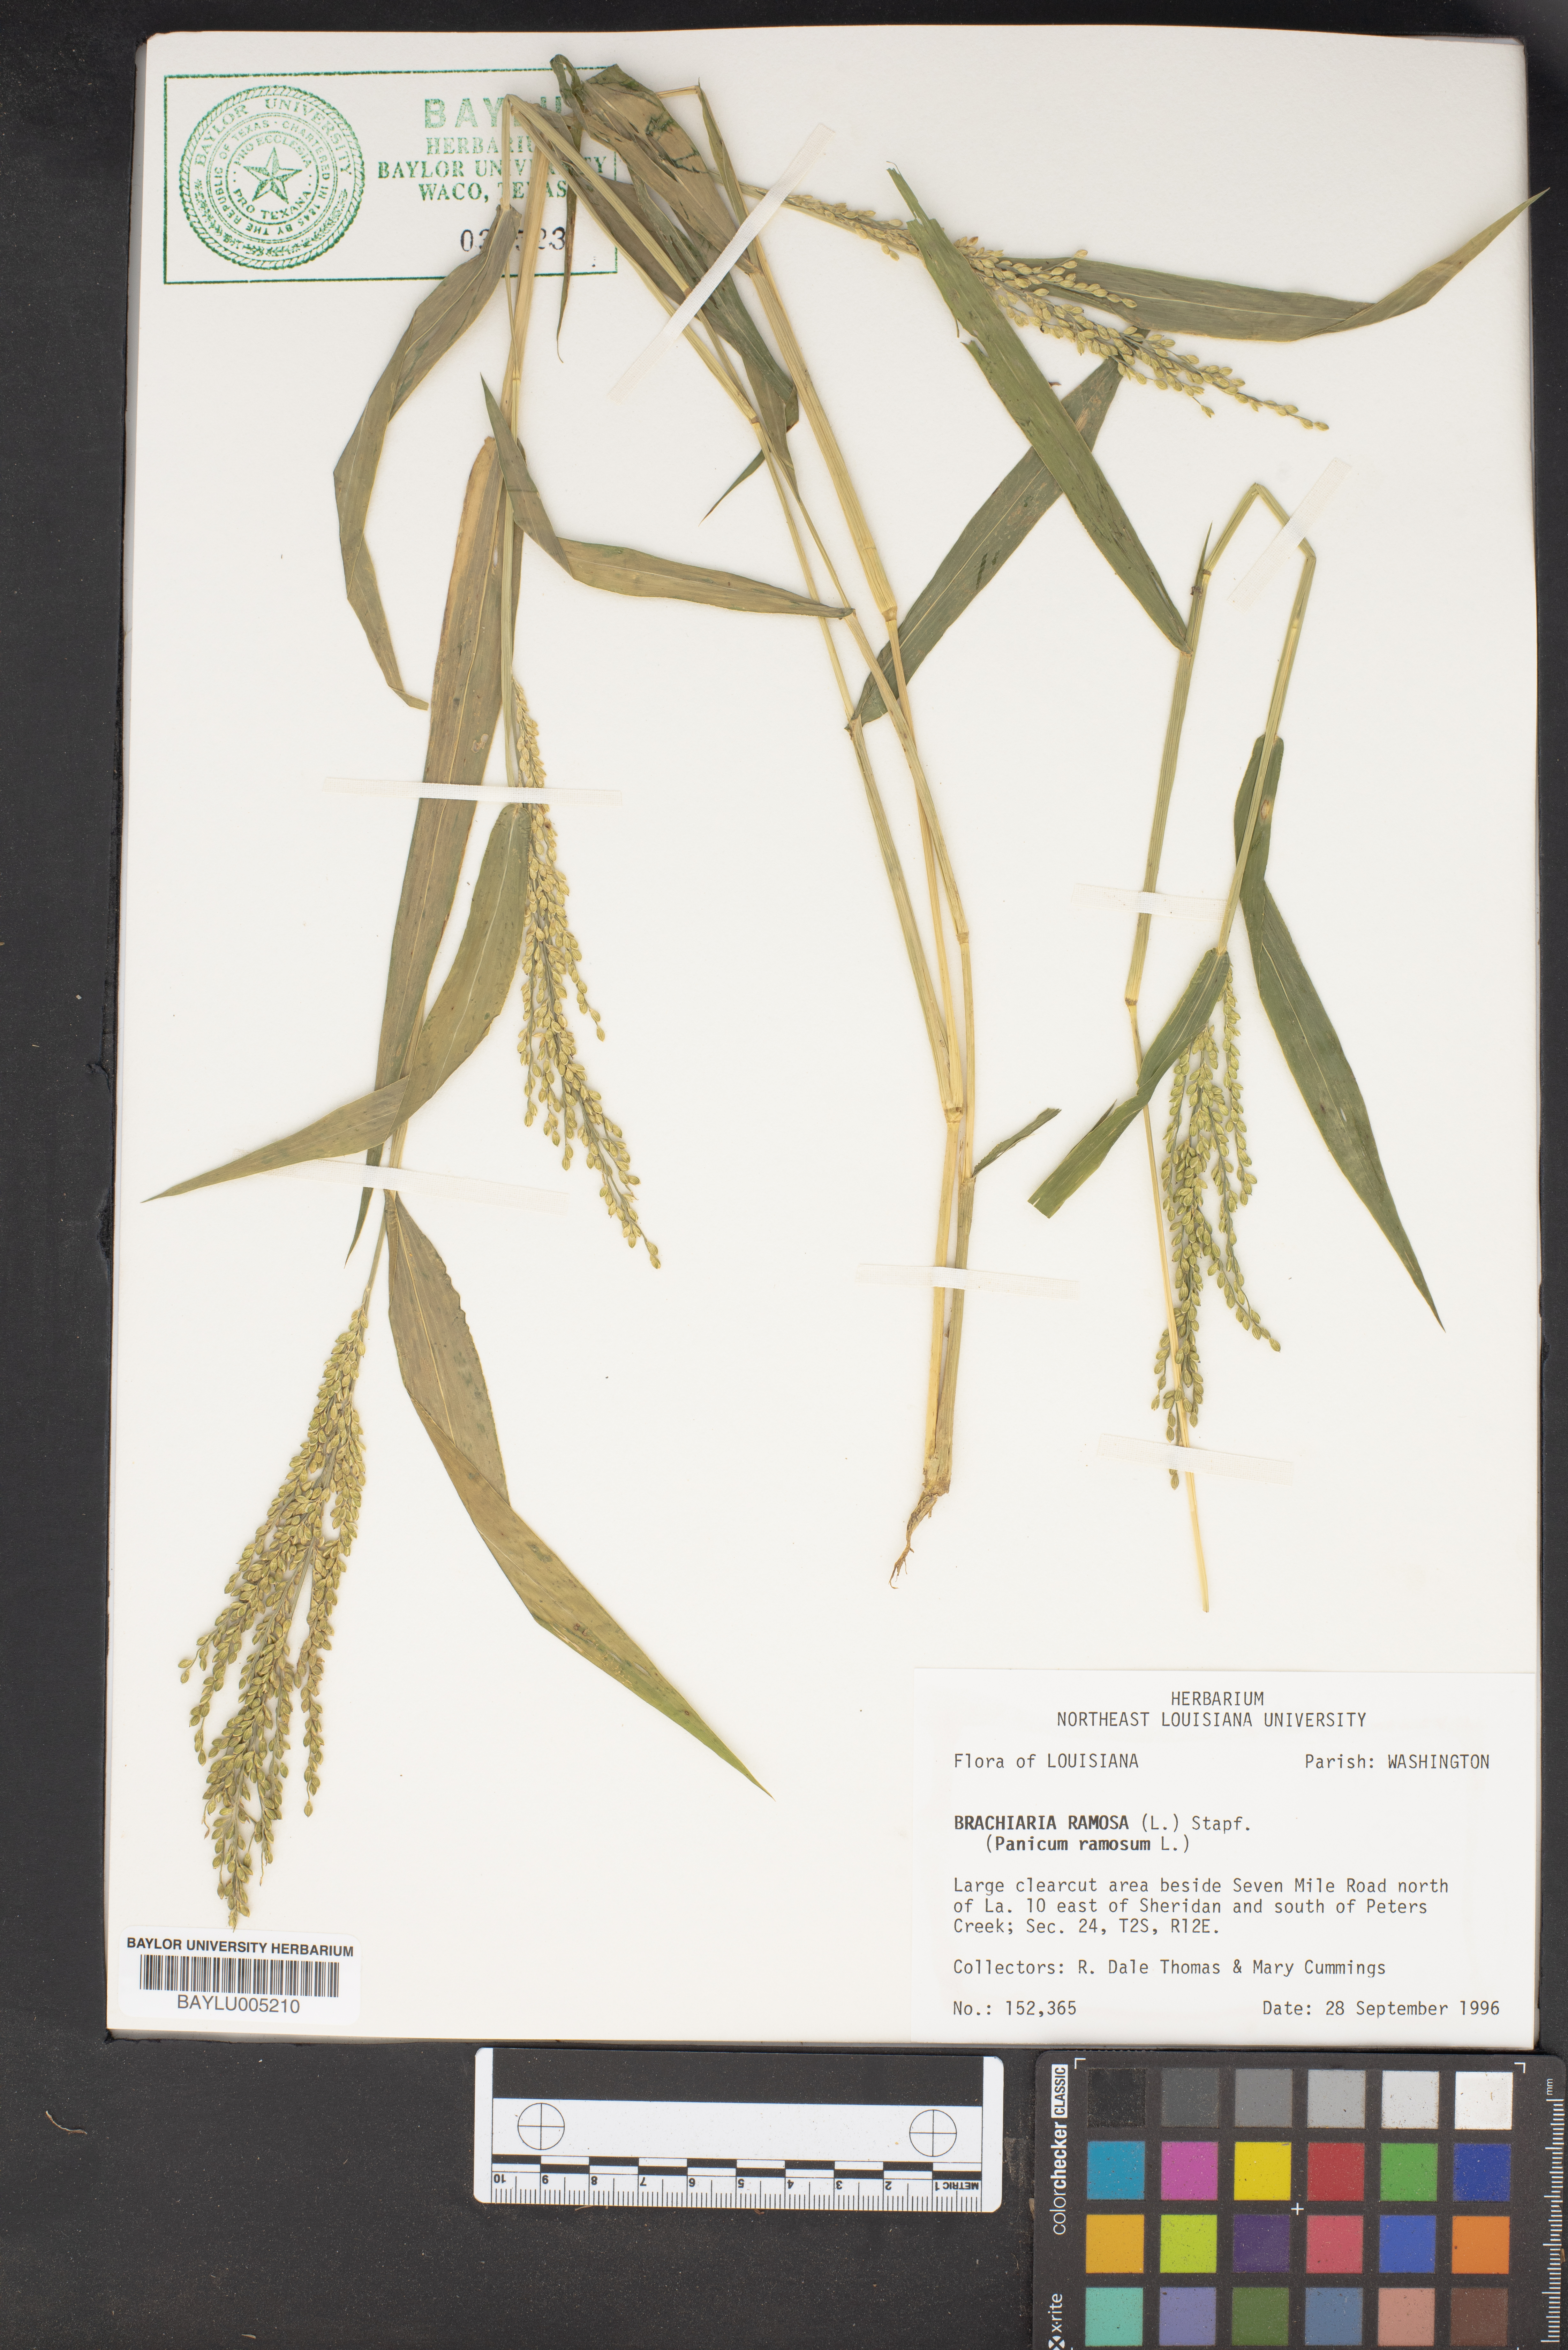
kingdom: Plantae
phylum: Tracheophyta
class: Liliopsida
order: Poales
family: Poaceae
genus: Urochloa
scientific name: Urochloa ramosa
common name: Browntop millet
